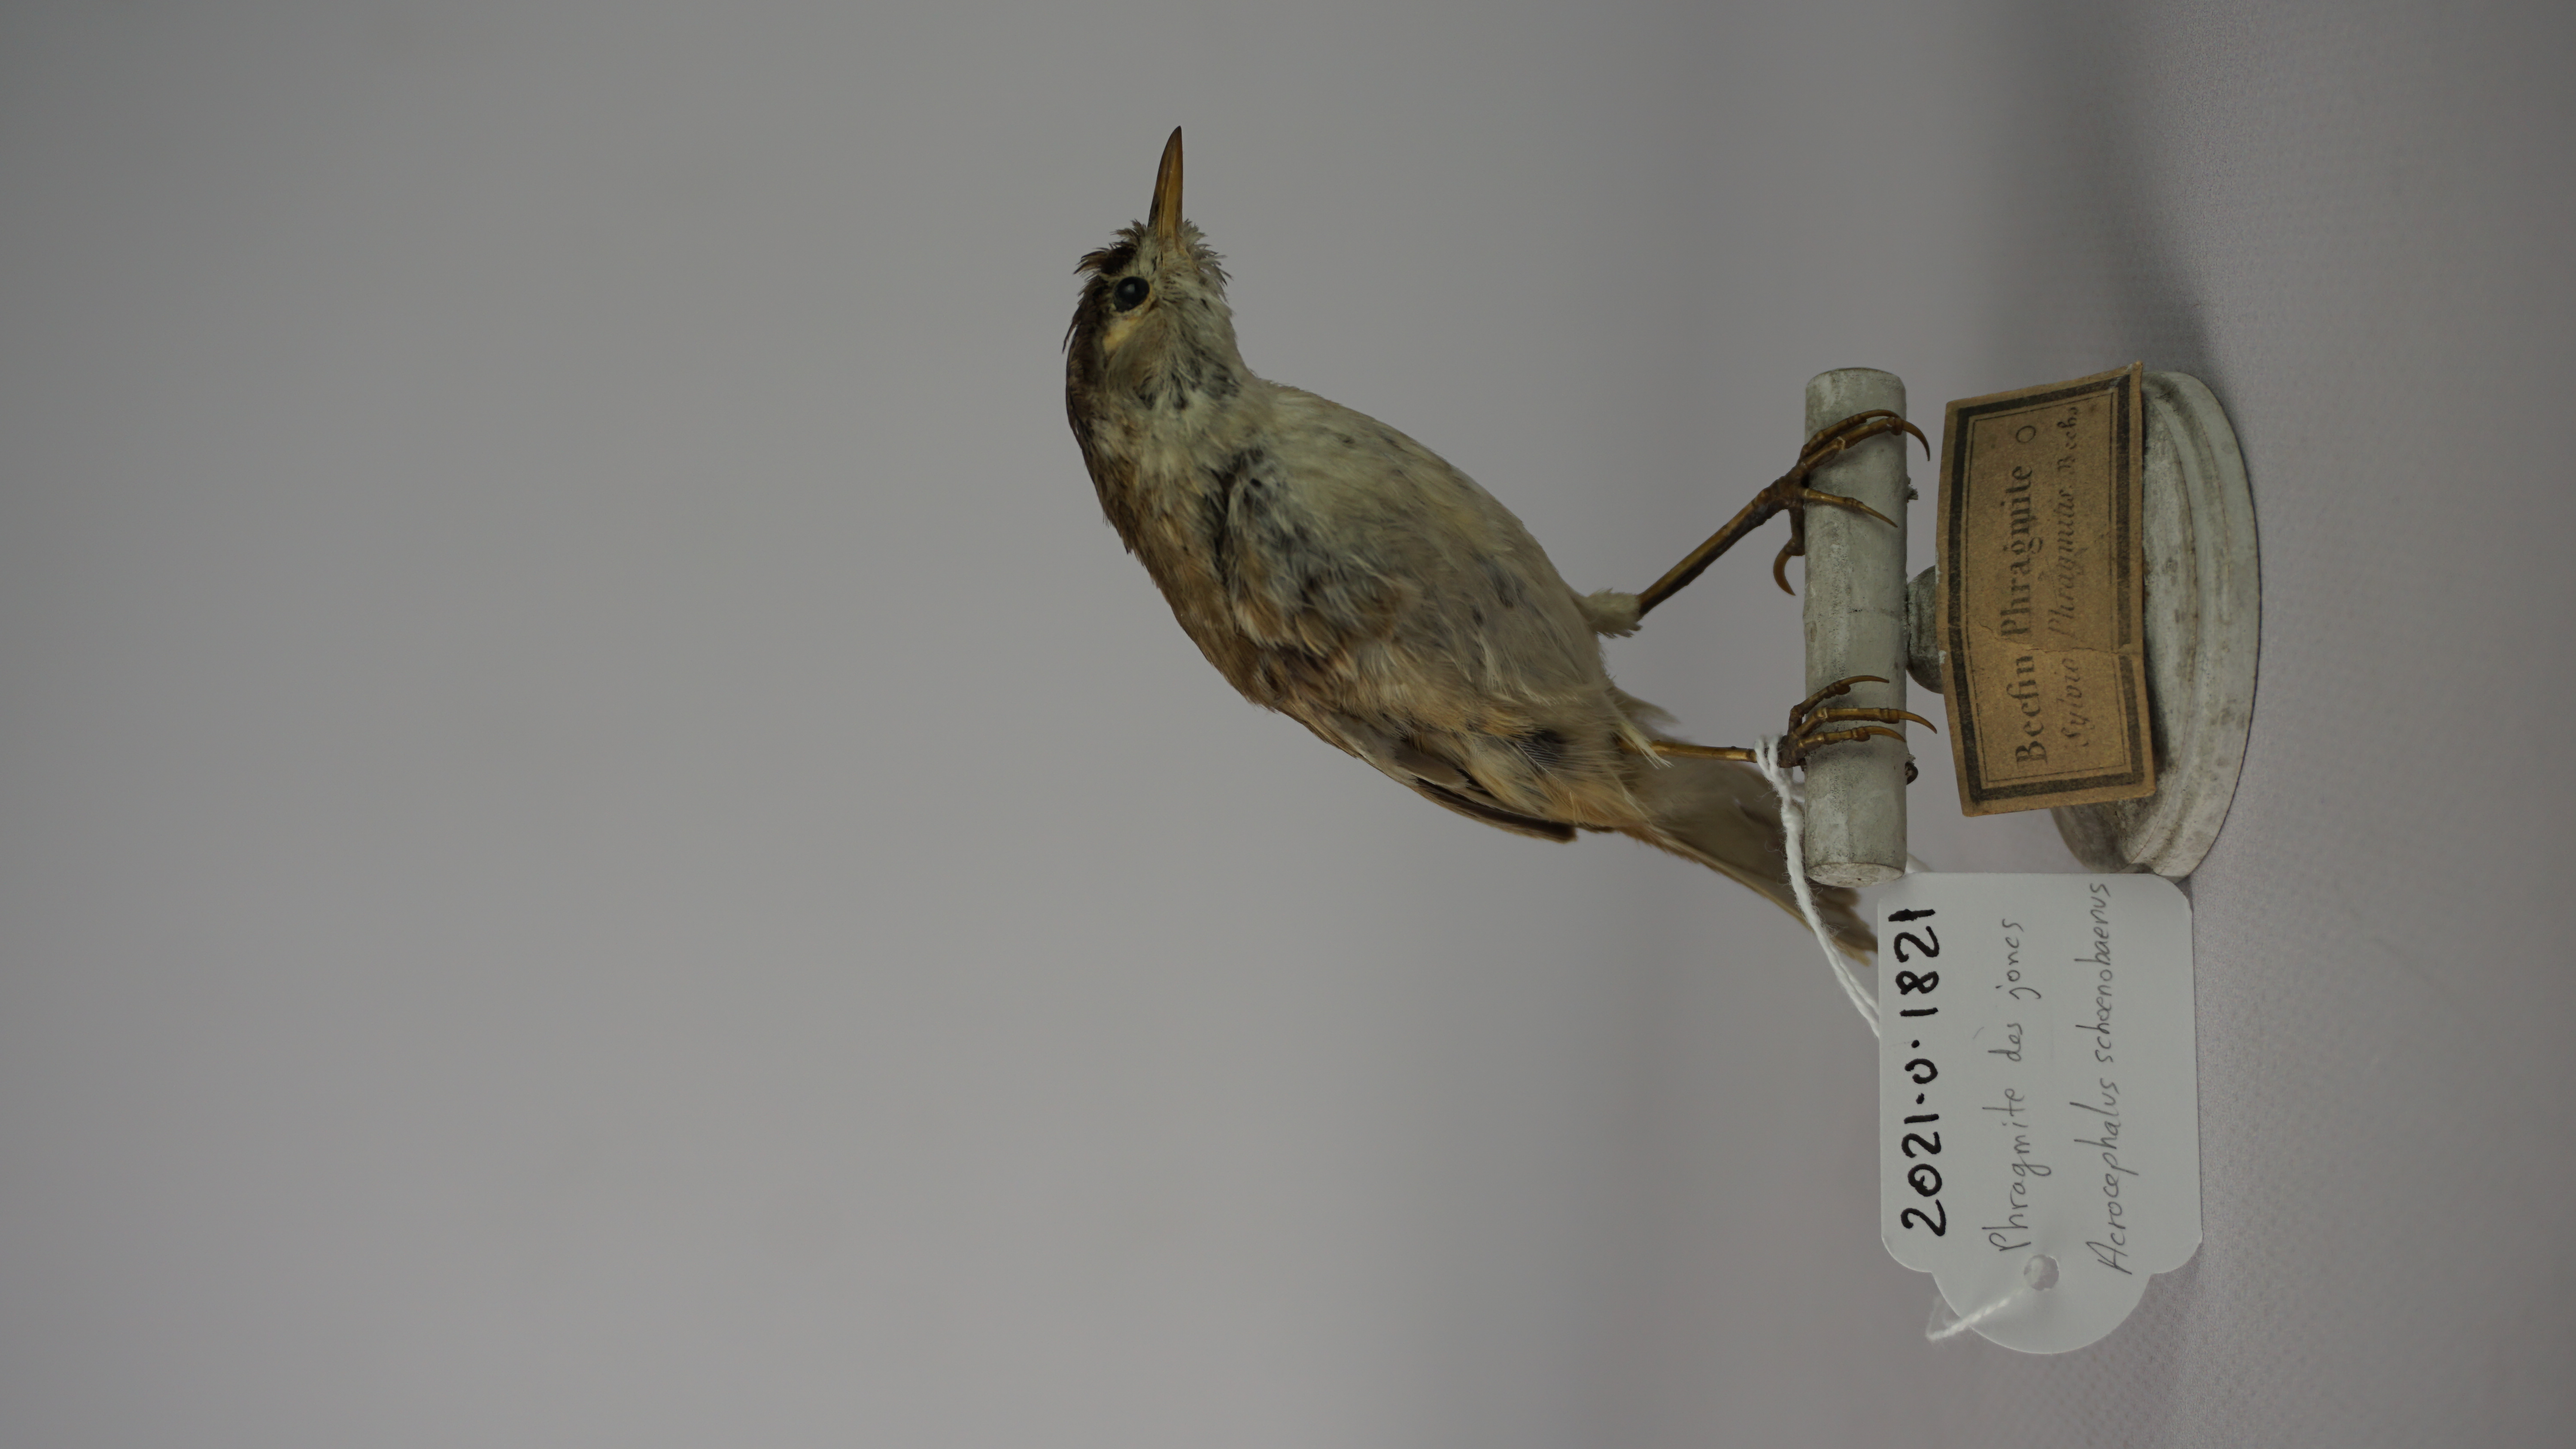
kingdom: Animalia
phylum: Chordata
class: Aves
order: Passeriformes
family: Acrocephalidae
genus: Acrocephalus
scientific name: Acrocephalus schoenobaenus
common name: Sedge warbler
